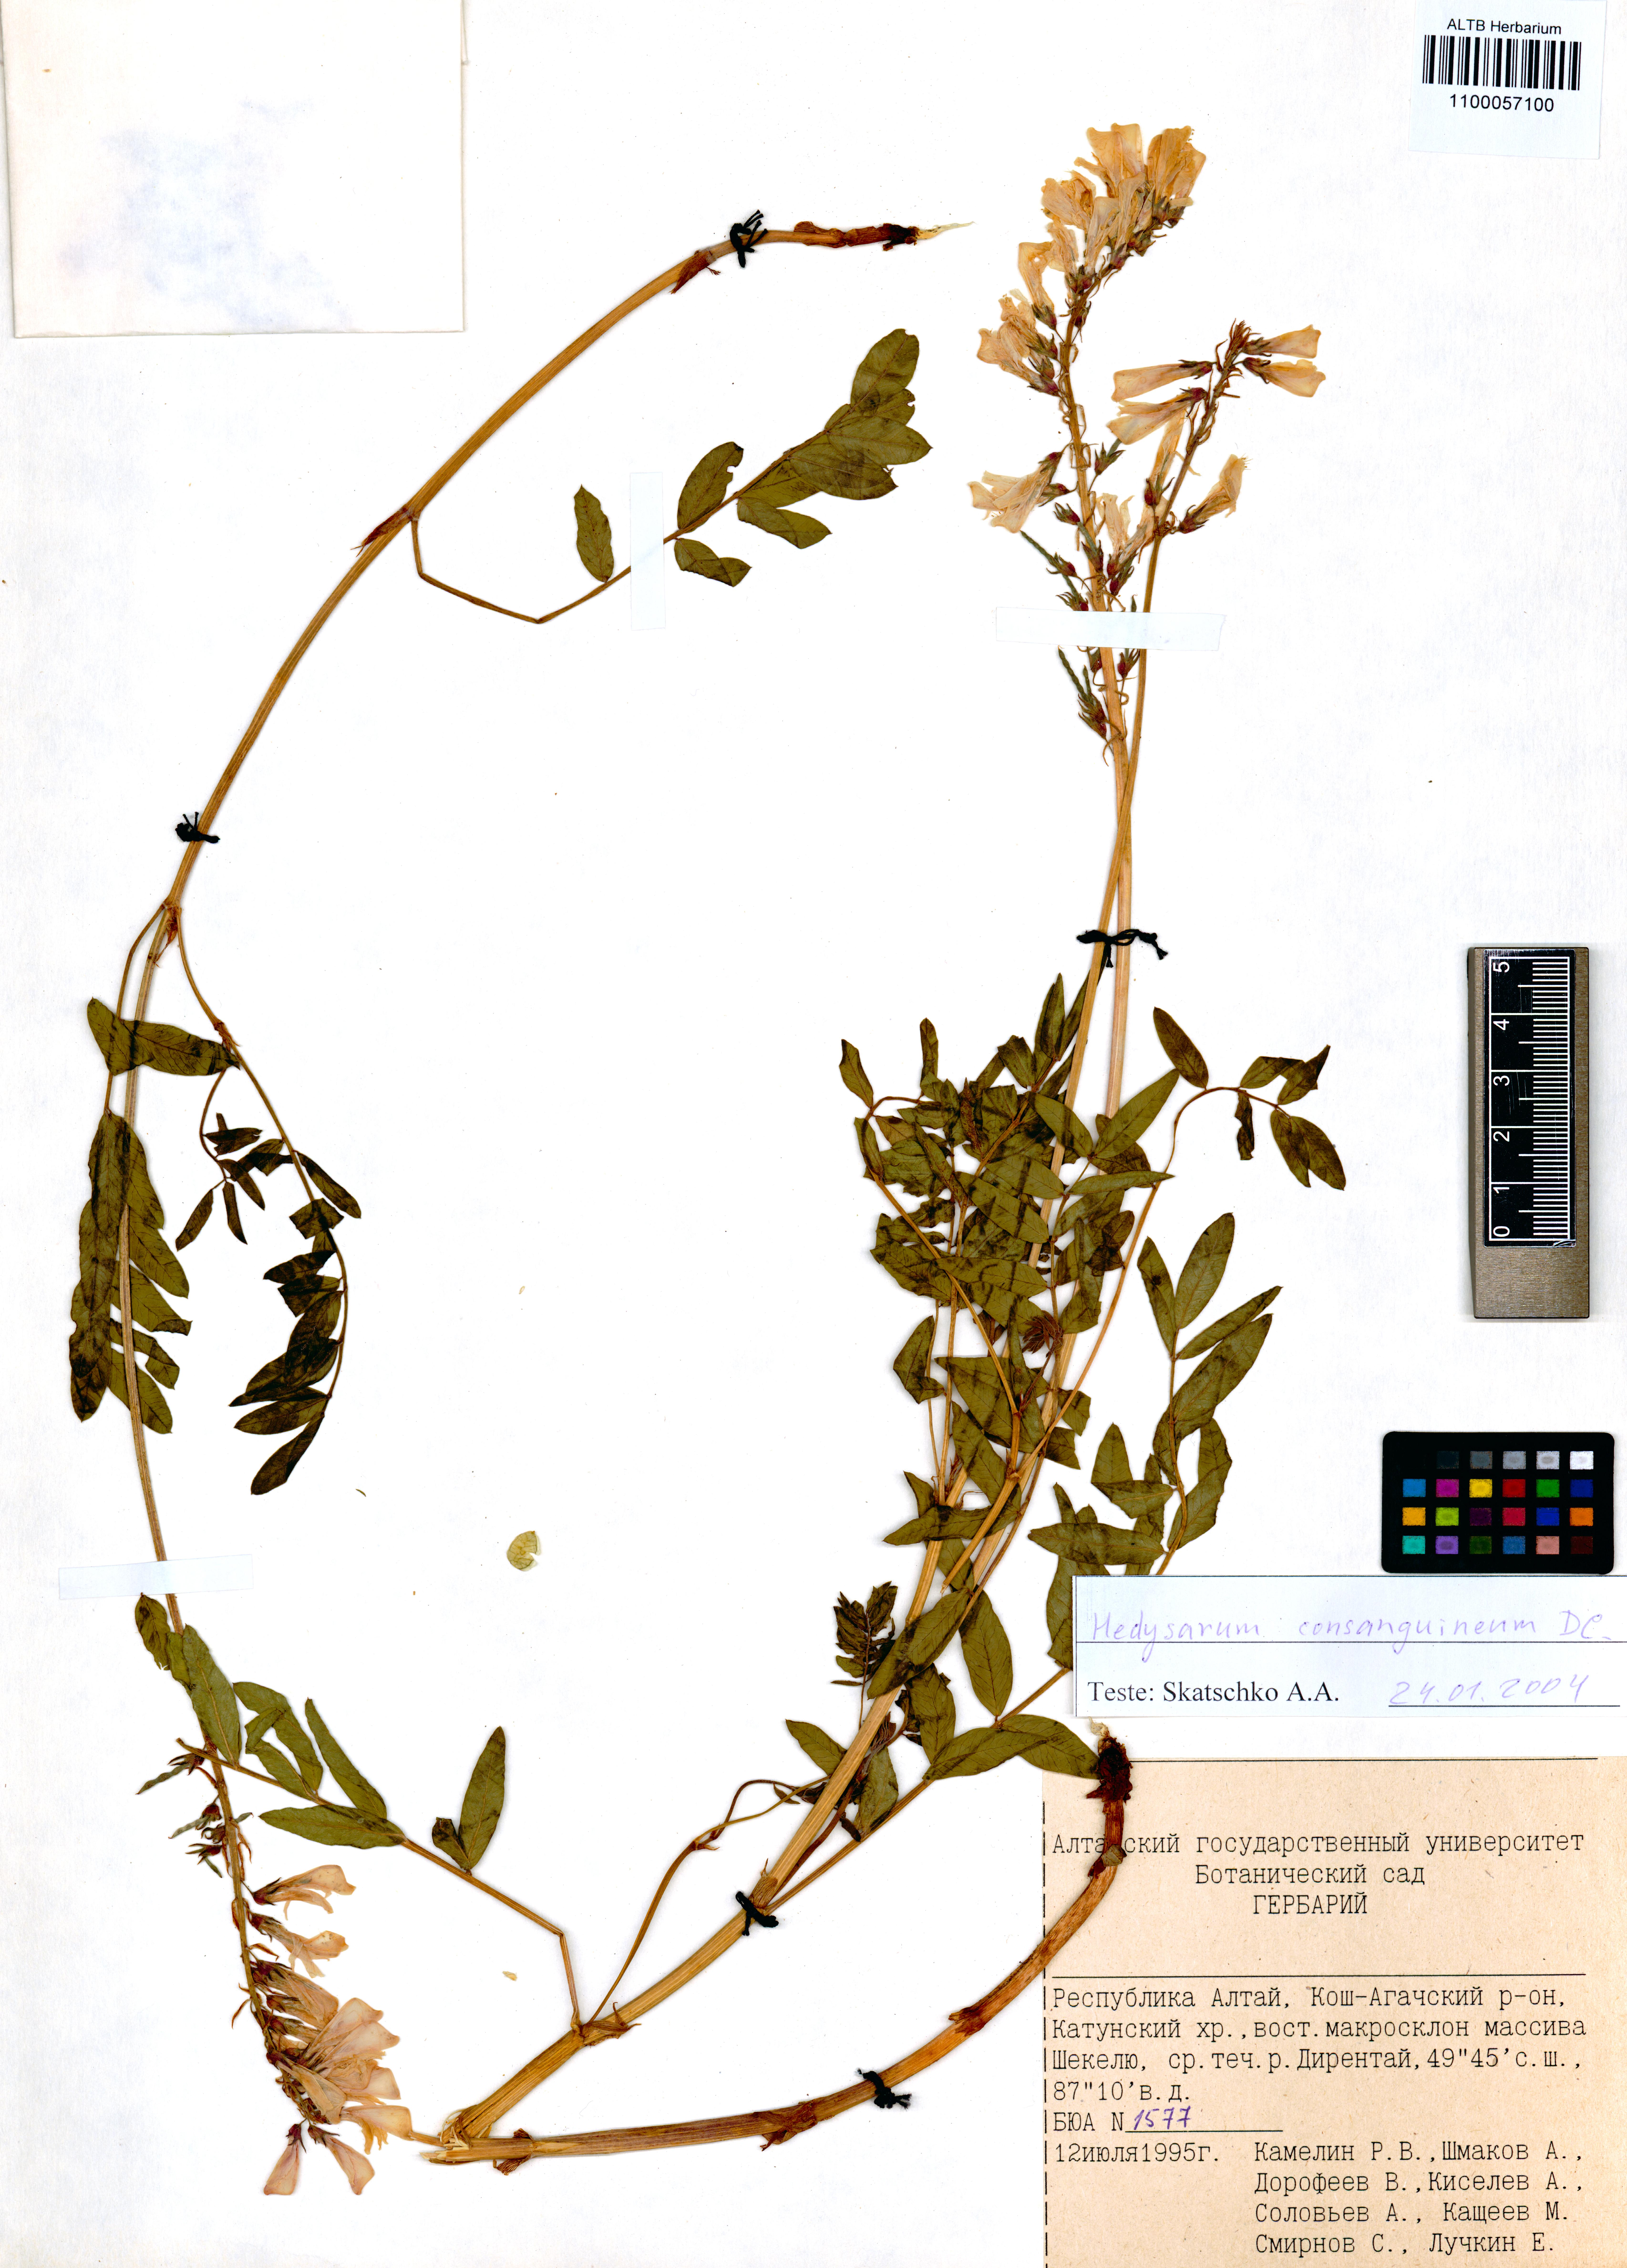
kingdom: Plantae
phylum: Tracheophyta
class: Magnoliopsida
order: Fabales
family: Fabaceae
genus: Hedysarum
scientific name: Hedysarum consanguineum
